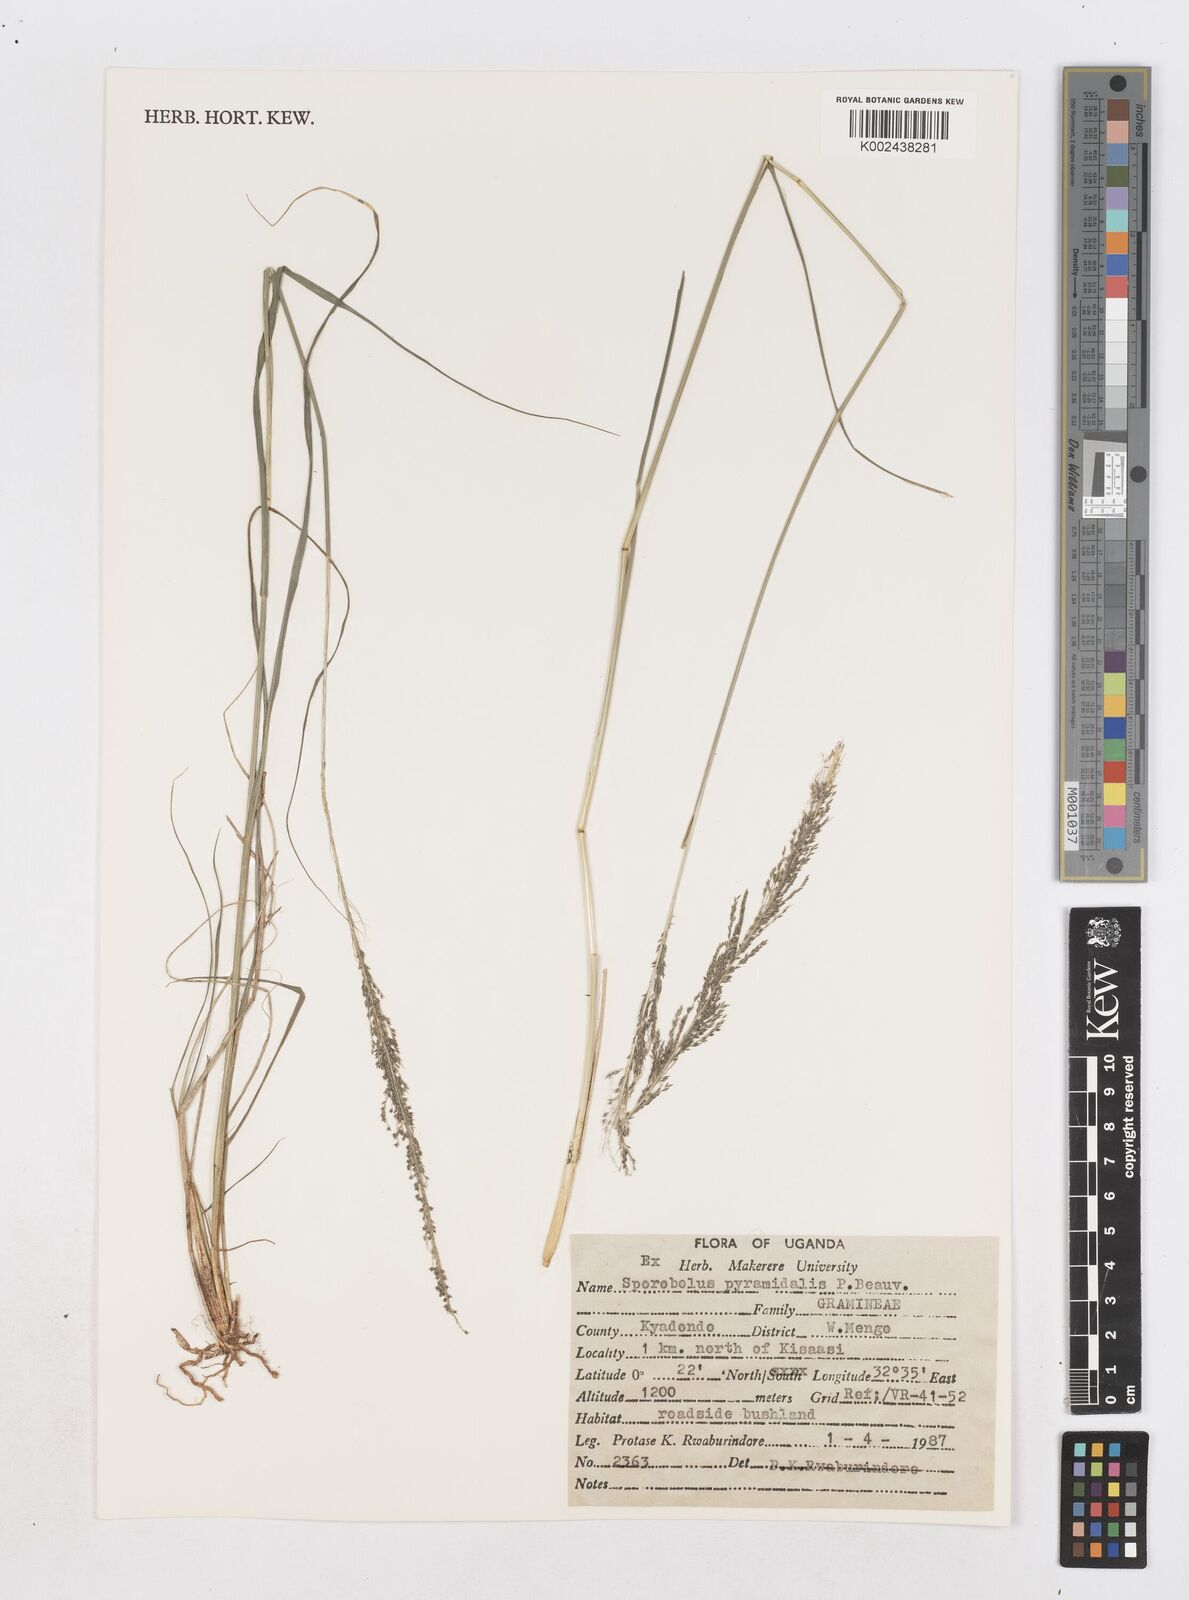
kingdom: Plantae
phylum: Tracheophyta
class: Liliopsida
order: Poales
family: Poaceae
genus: Sporobolus
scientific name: Sporobolus pyramidalis
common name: West indian dropseed
